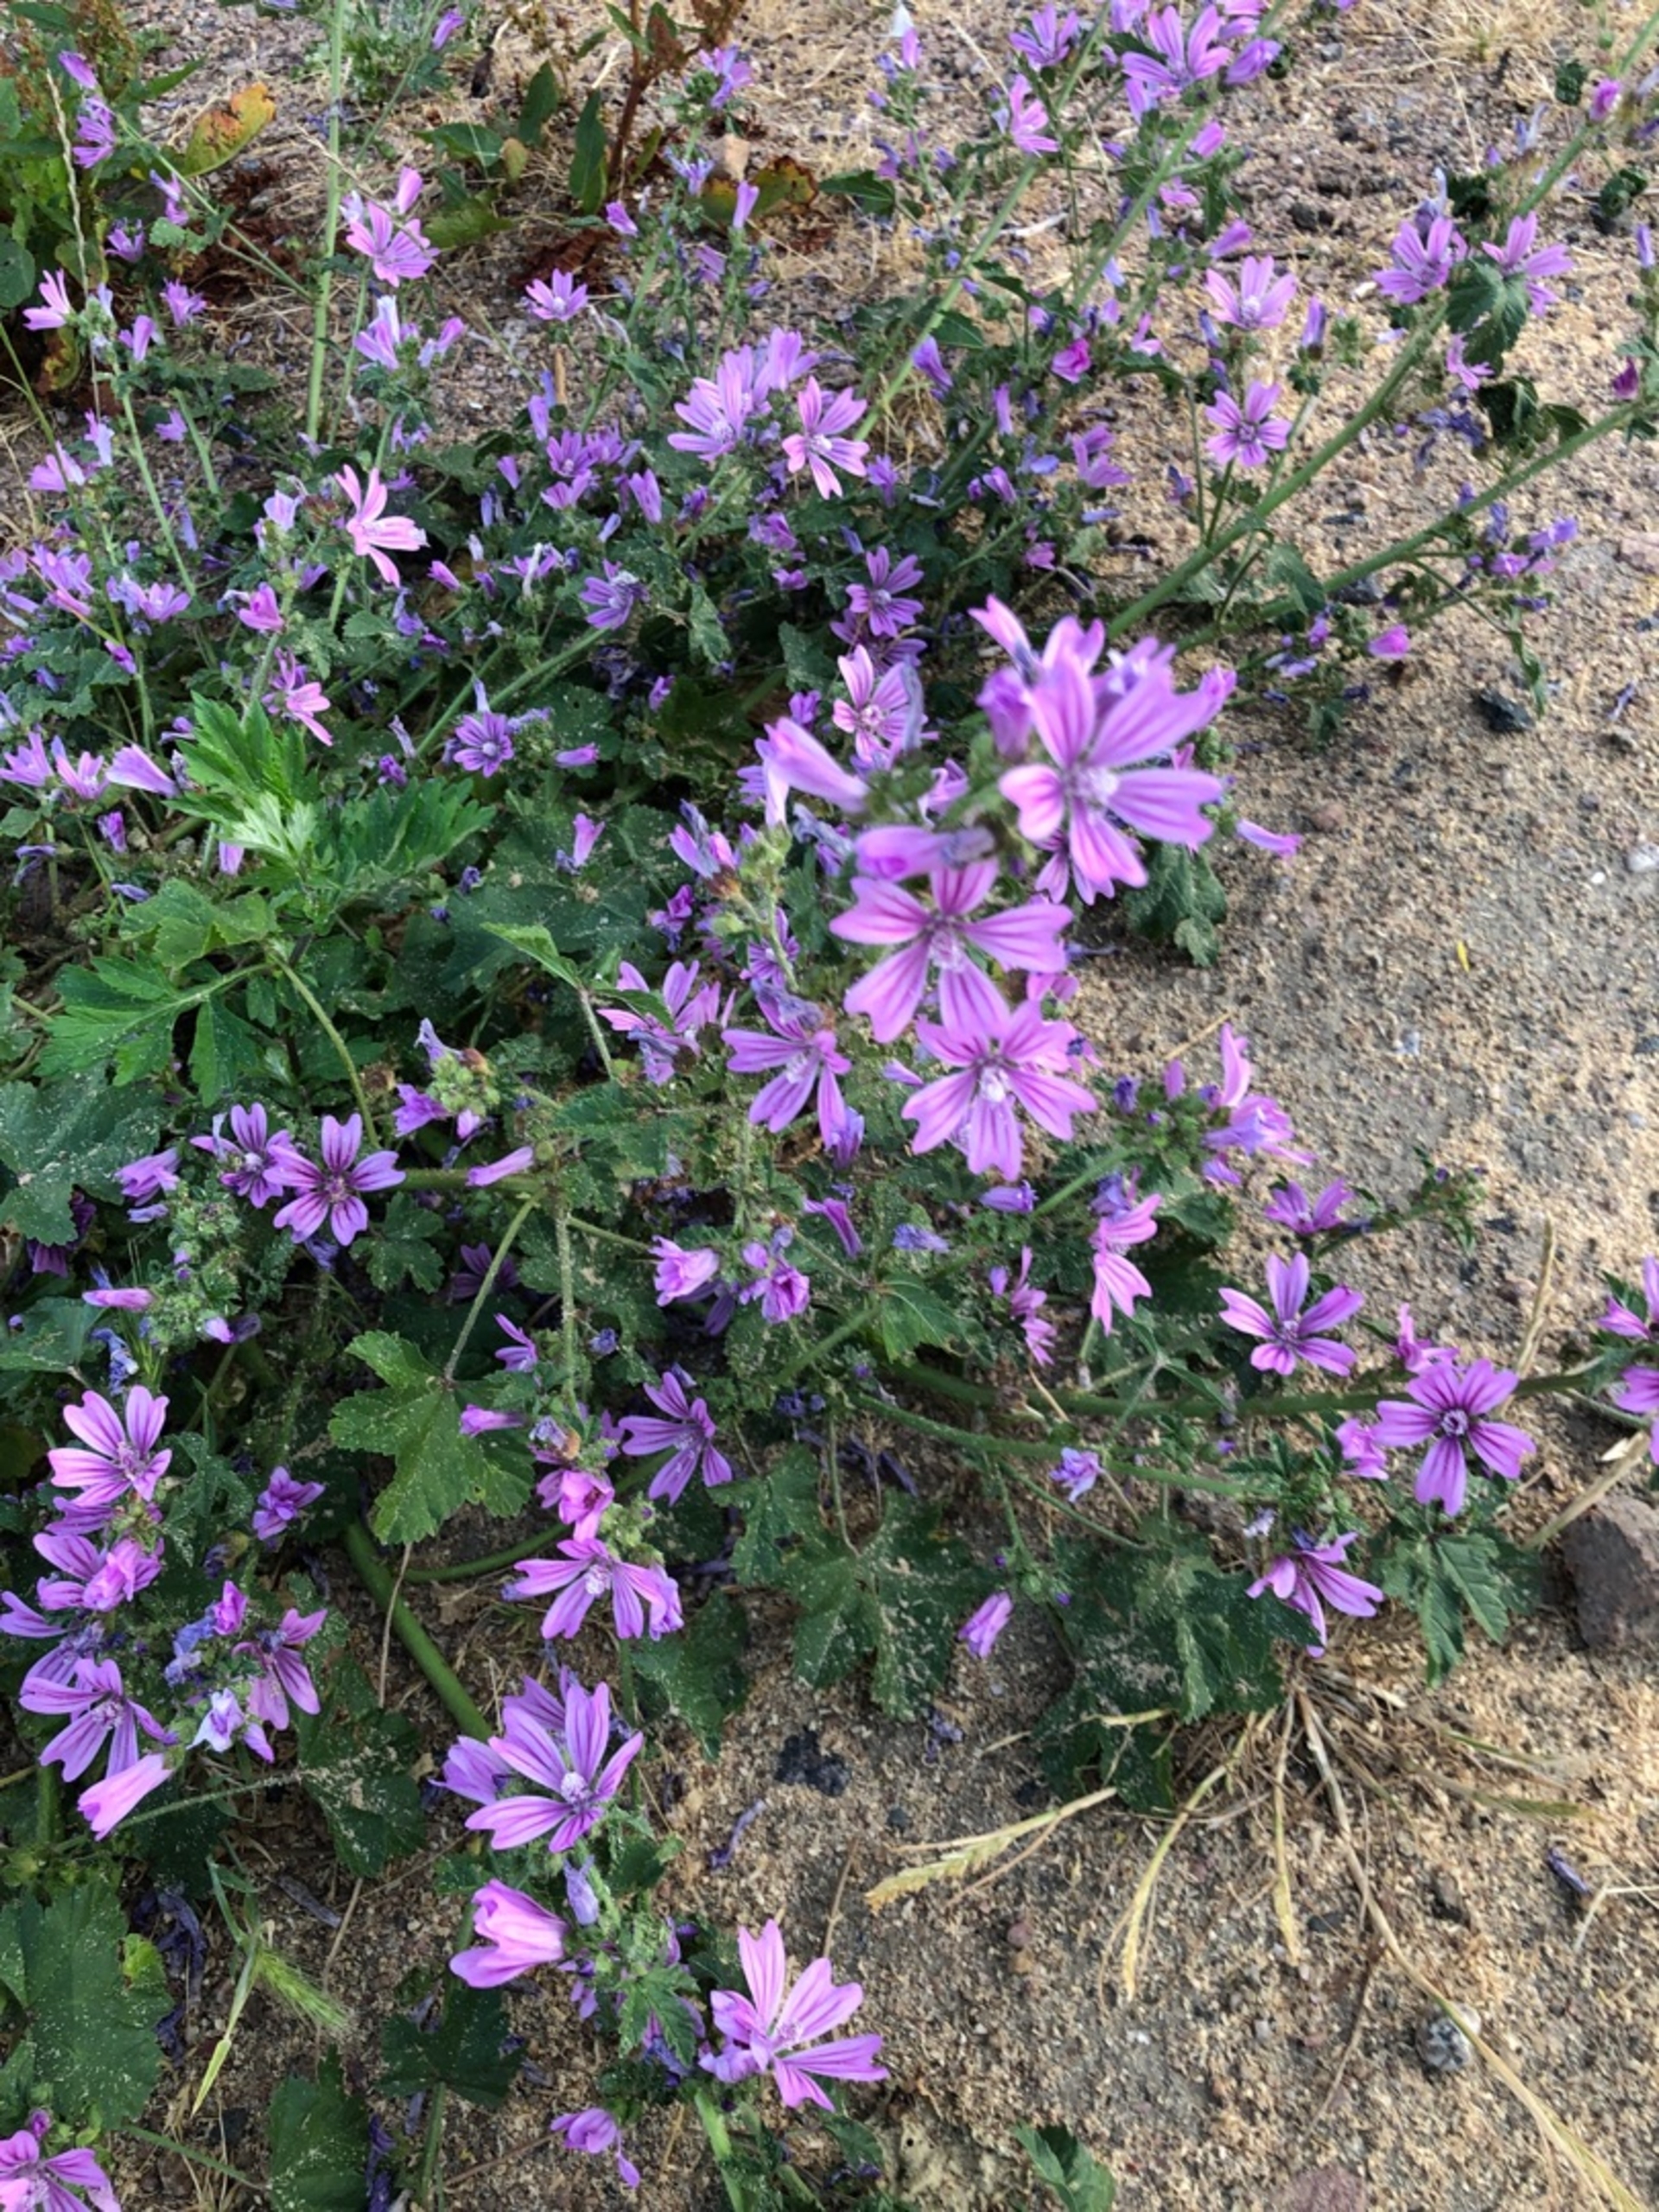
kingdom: Plantae
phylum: Tracheophyta
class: Magnoliopsida
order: Malvales
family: Malvaceae
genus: Malva
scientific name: Malva sylvestris
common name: Almindelig katost
